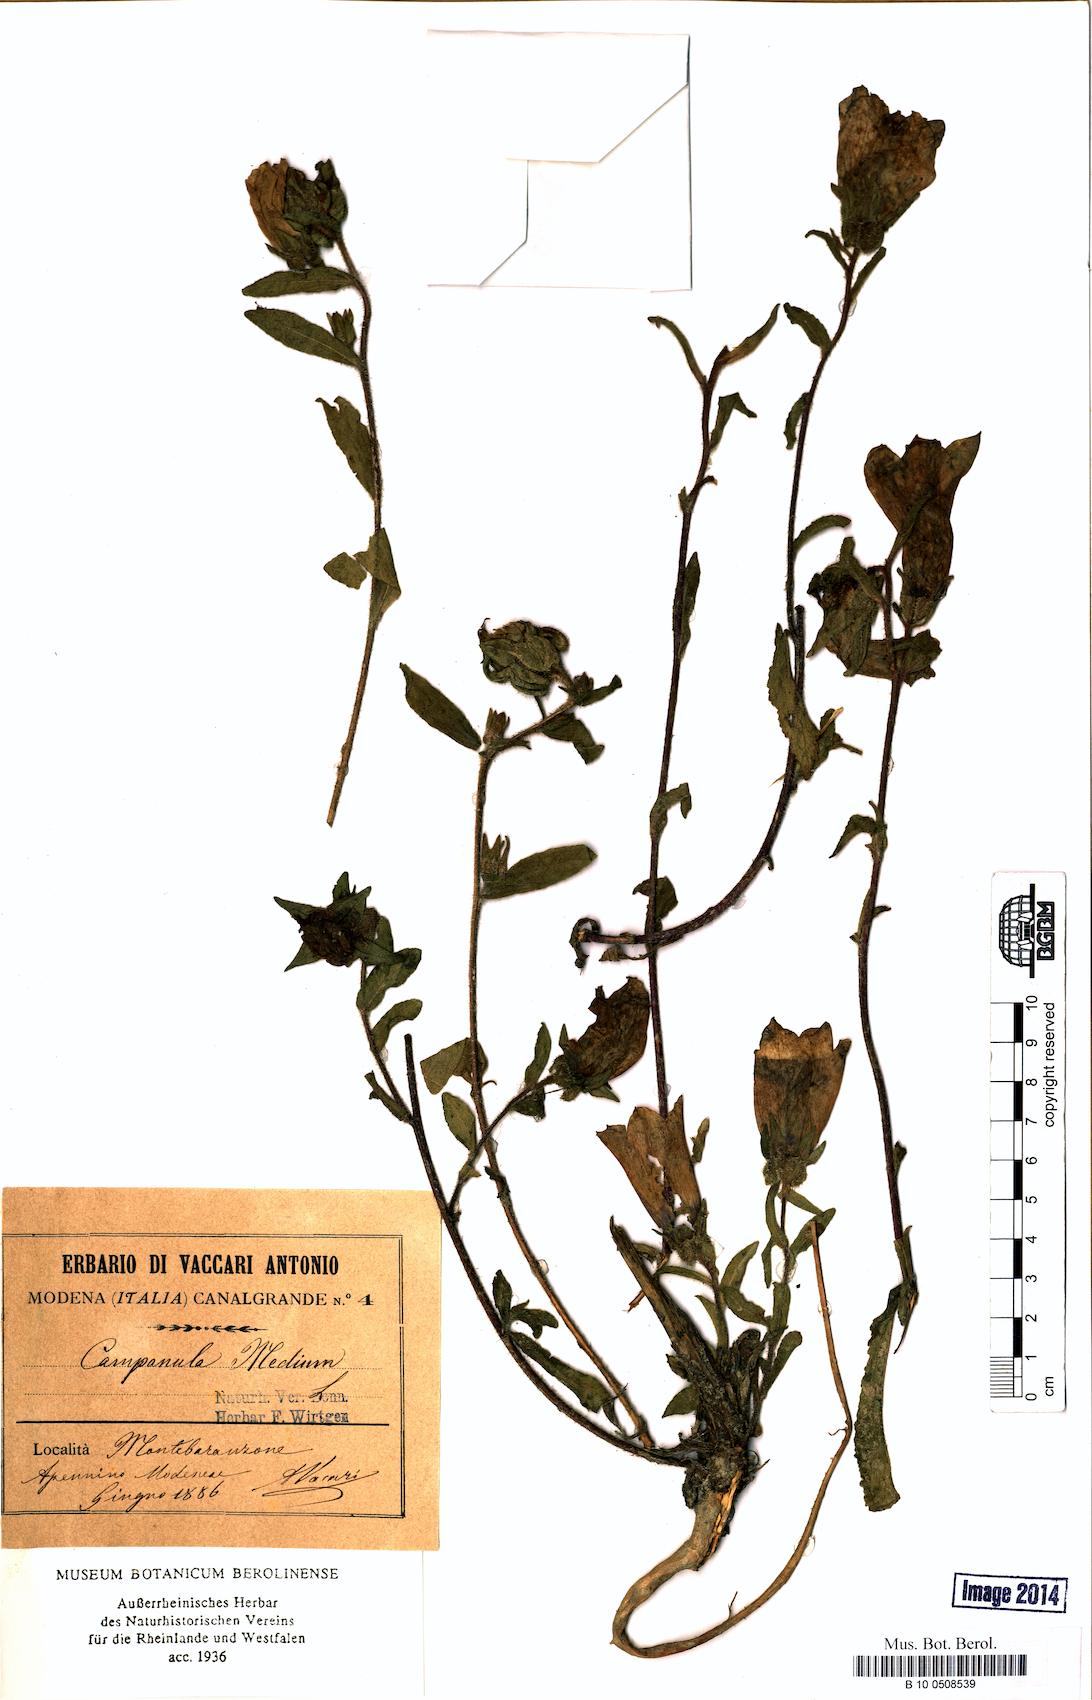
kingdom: Plantae
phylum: Tracheophyta
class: Magnoliopsida
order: Asterales
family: Campanulaceae
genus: Campanula
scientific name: Campanula medium
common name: Canterbury bells
